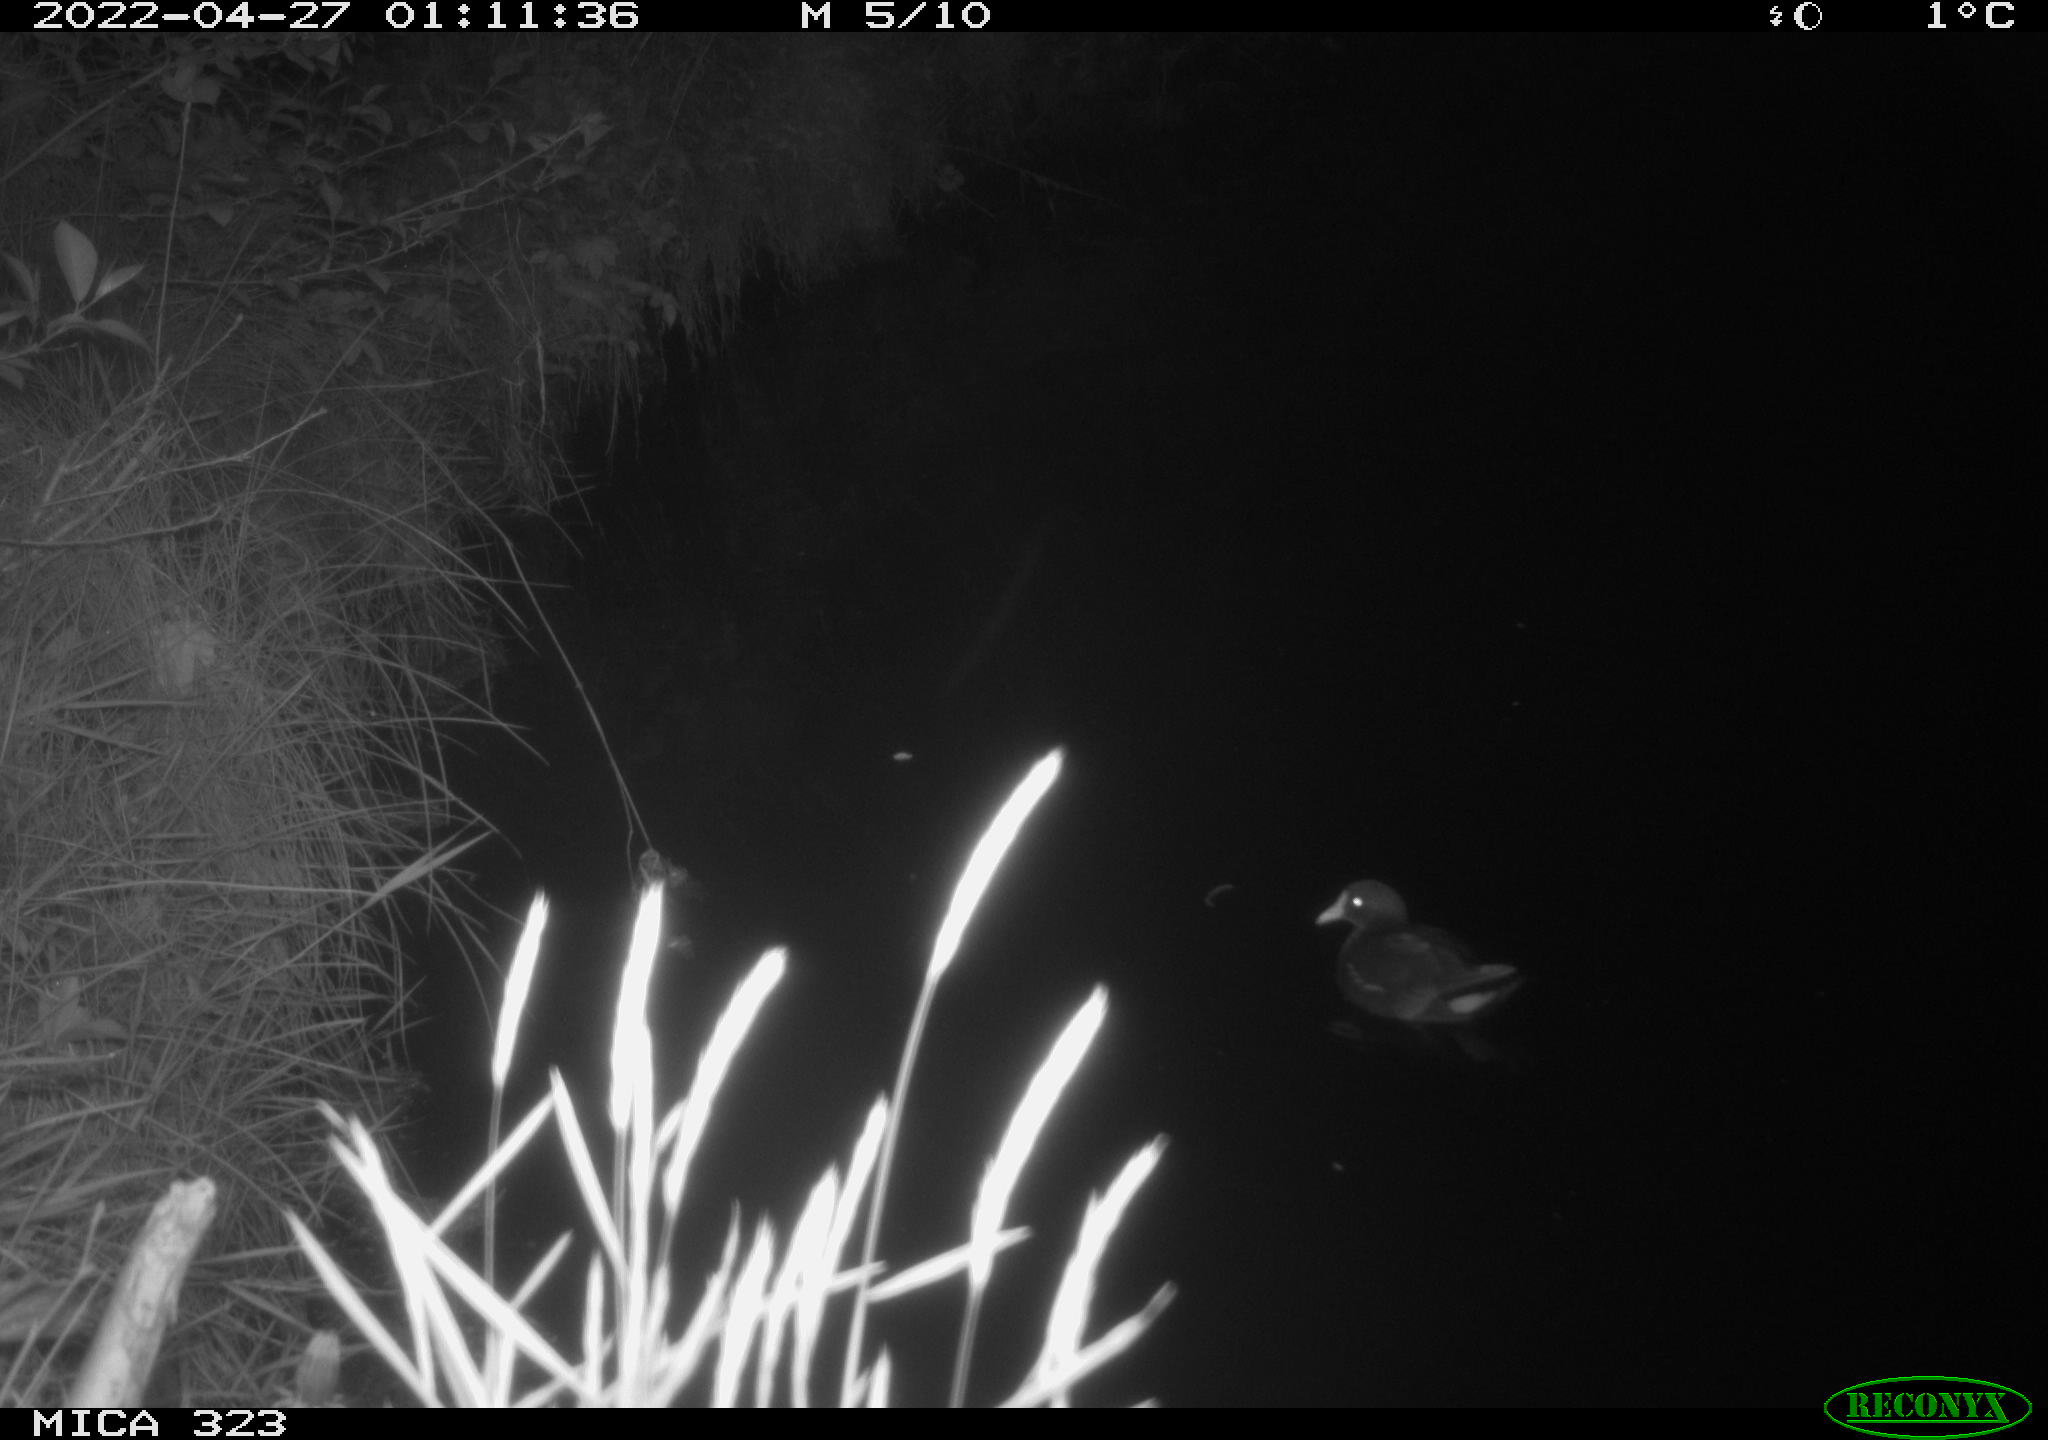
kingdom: Animalia
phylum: Chordata
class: Aves
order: Gruiformes
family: Rallidae
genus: Gallinula
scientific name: Gallinula chloropus
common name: Common moorhen
